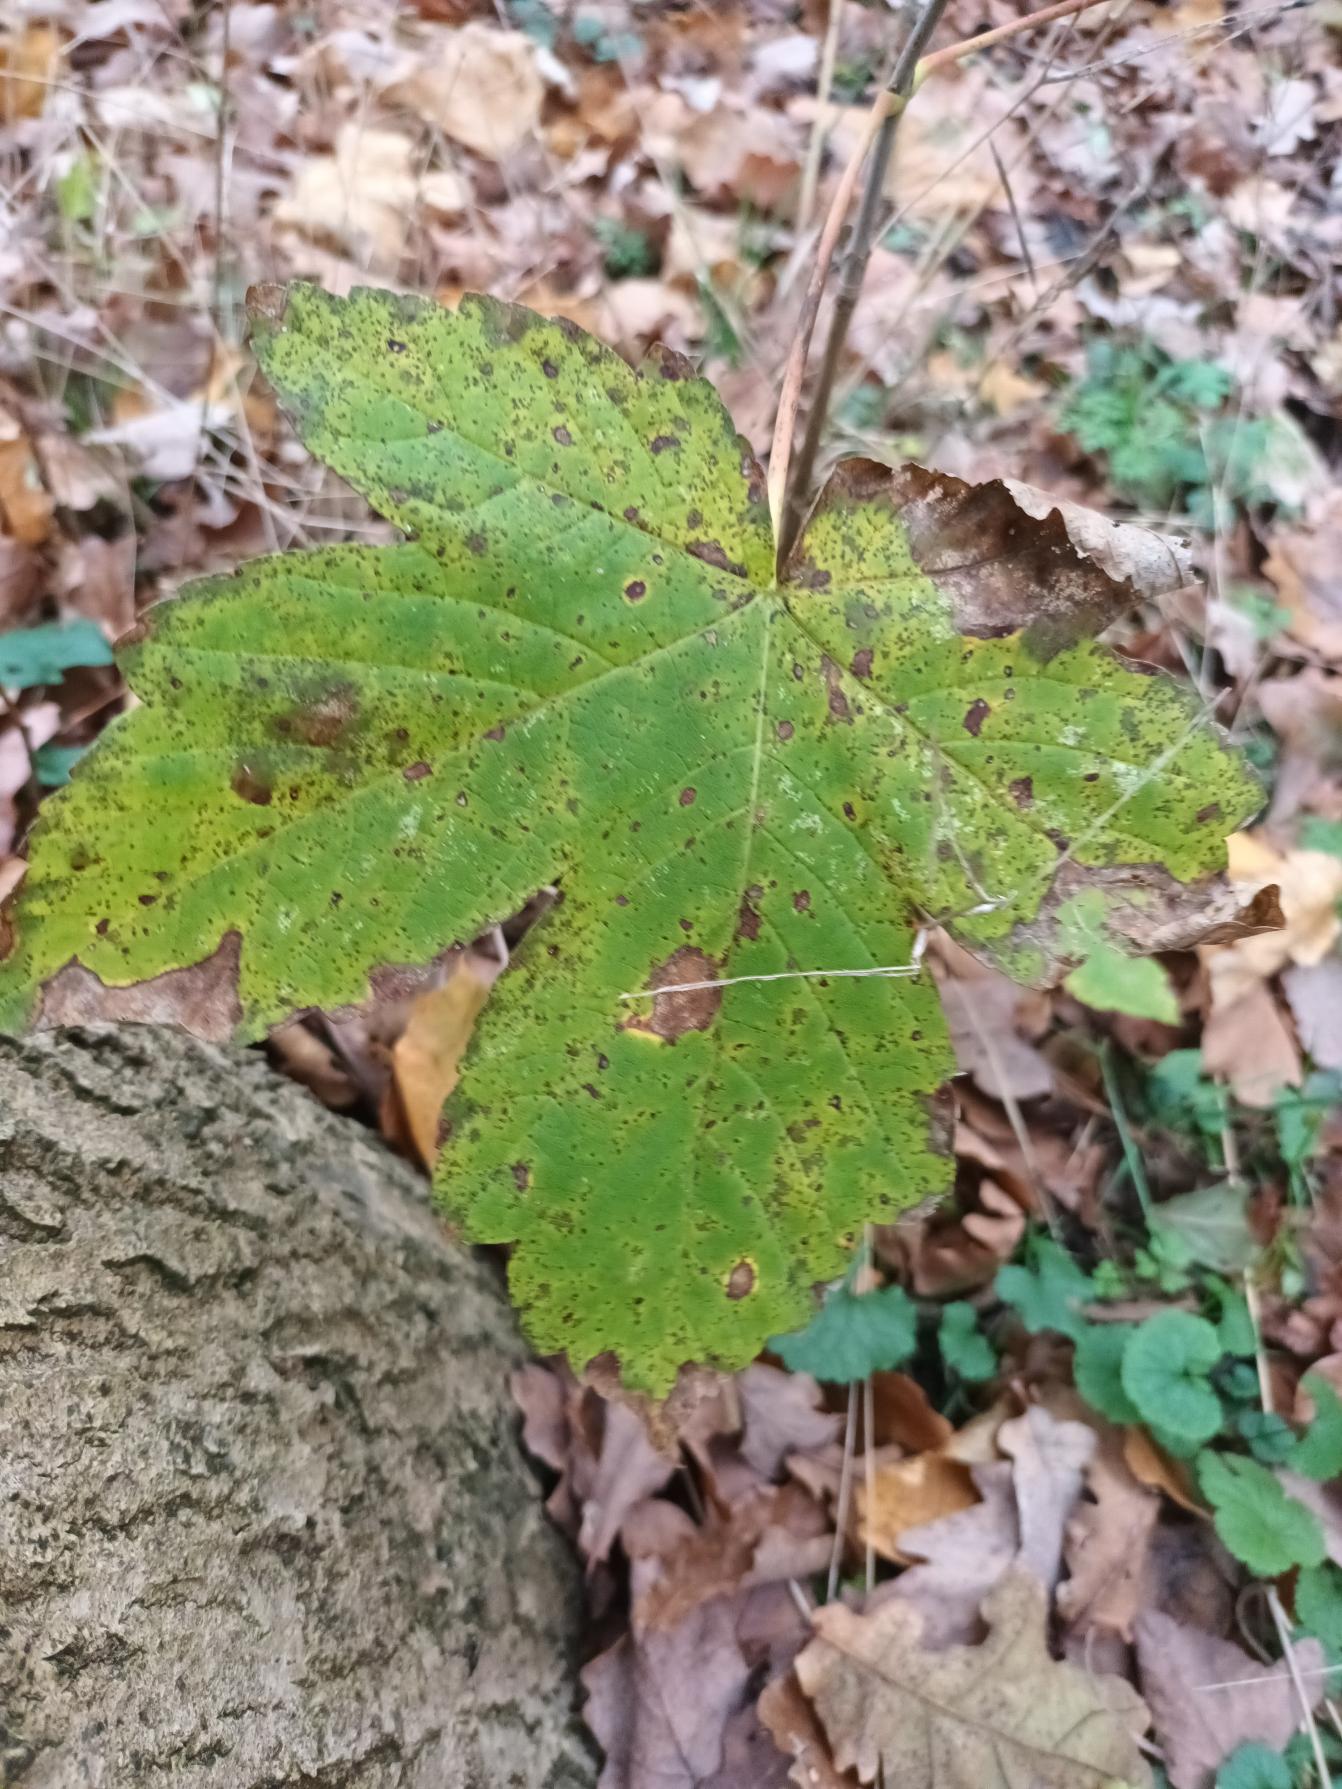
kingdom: Plantae
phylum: Tracheophyta
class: Magnoliopsida
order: Sapindales
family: Sapindaceae
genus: Acer
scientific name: Acer pseudoplatanus
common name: Ahorn
